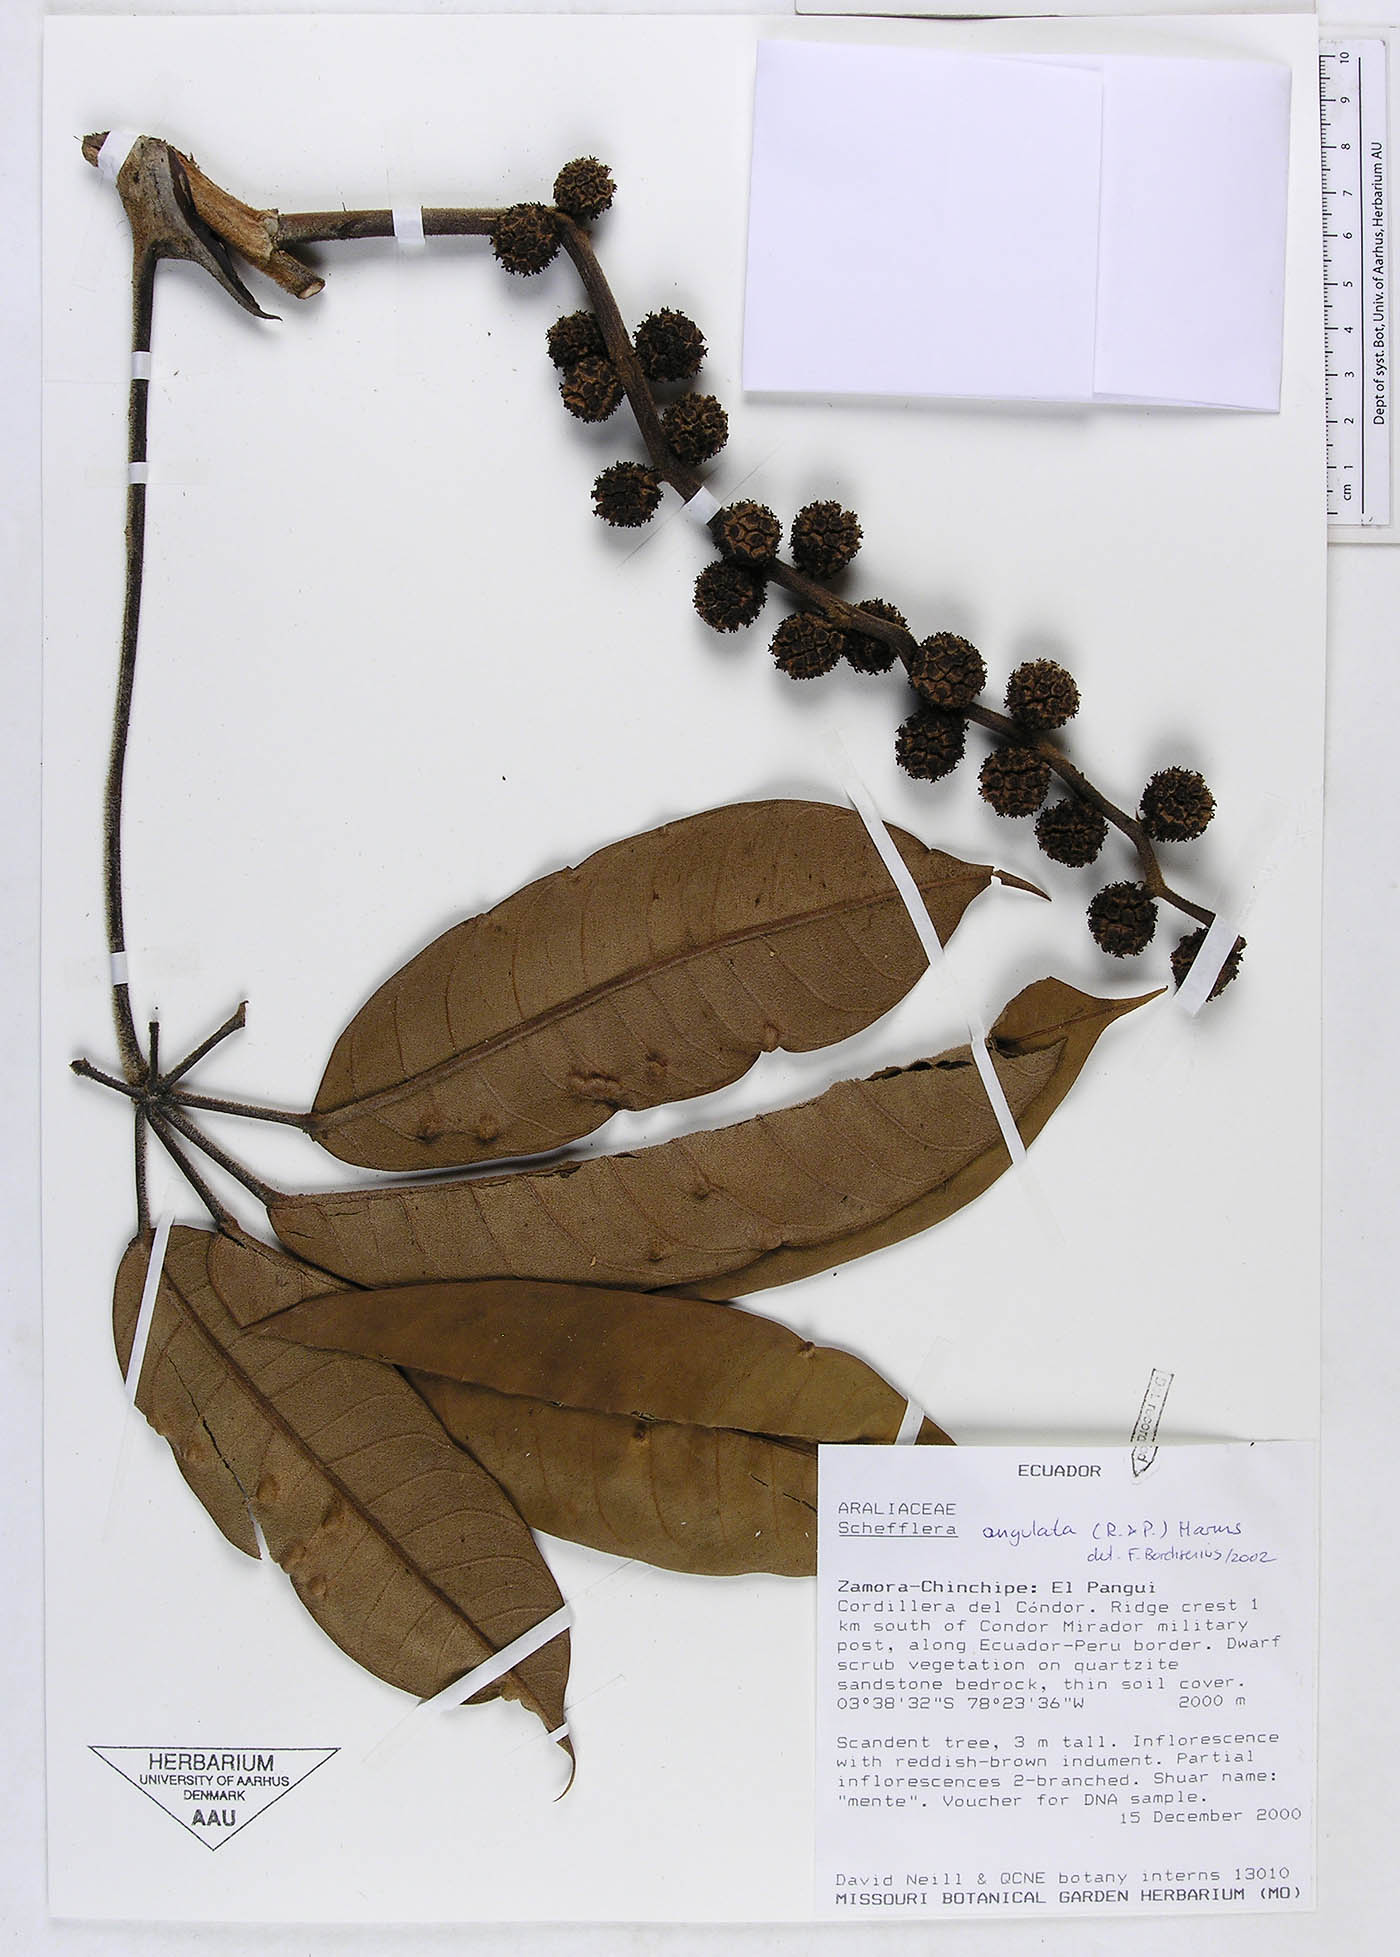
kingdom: Plantae
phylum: Tracheophyta
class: Magnoliopsida
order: Apiales
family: Araliaceae
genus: Sciodaphyllum
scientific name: Sciodaphyllum angulatum
